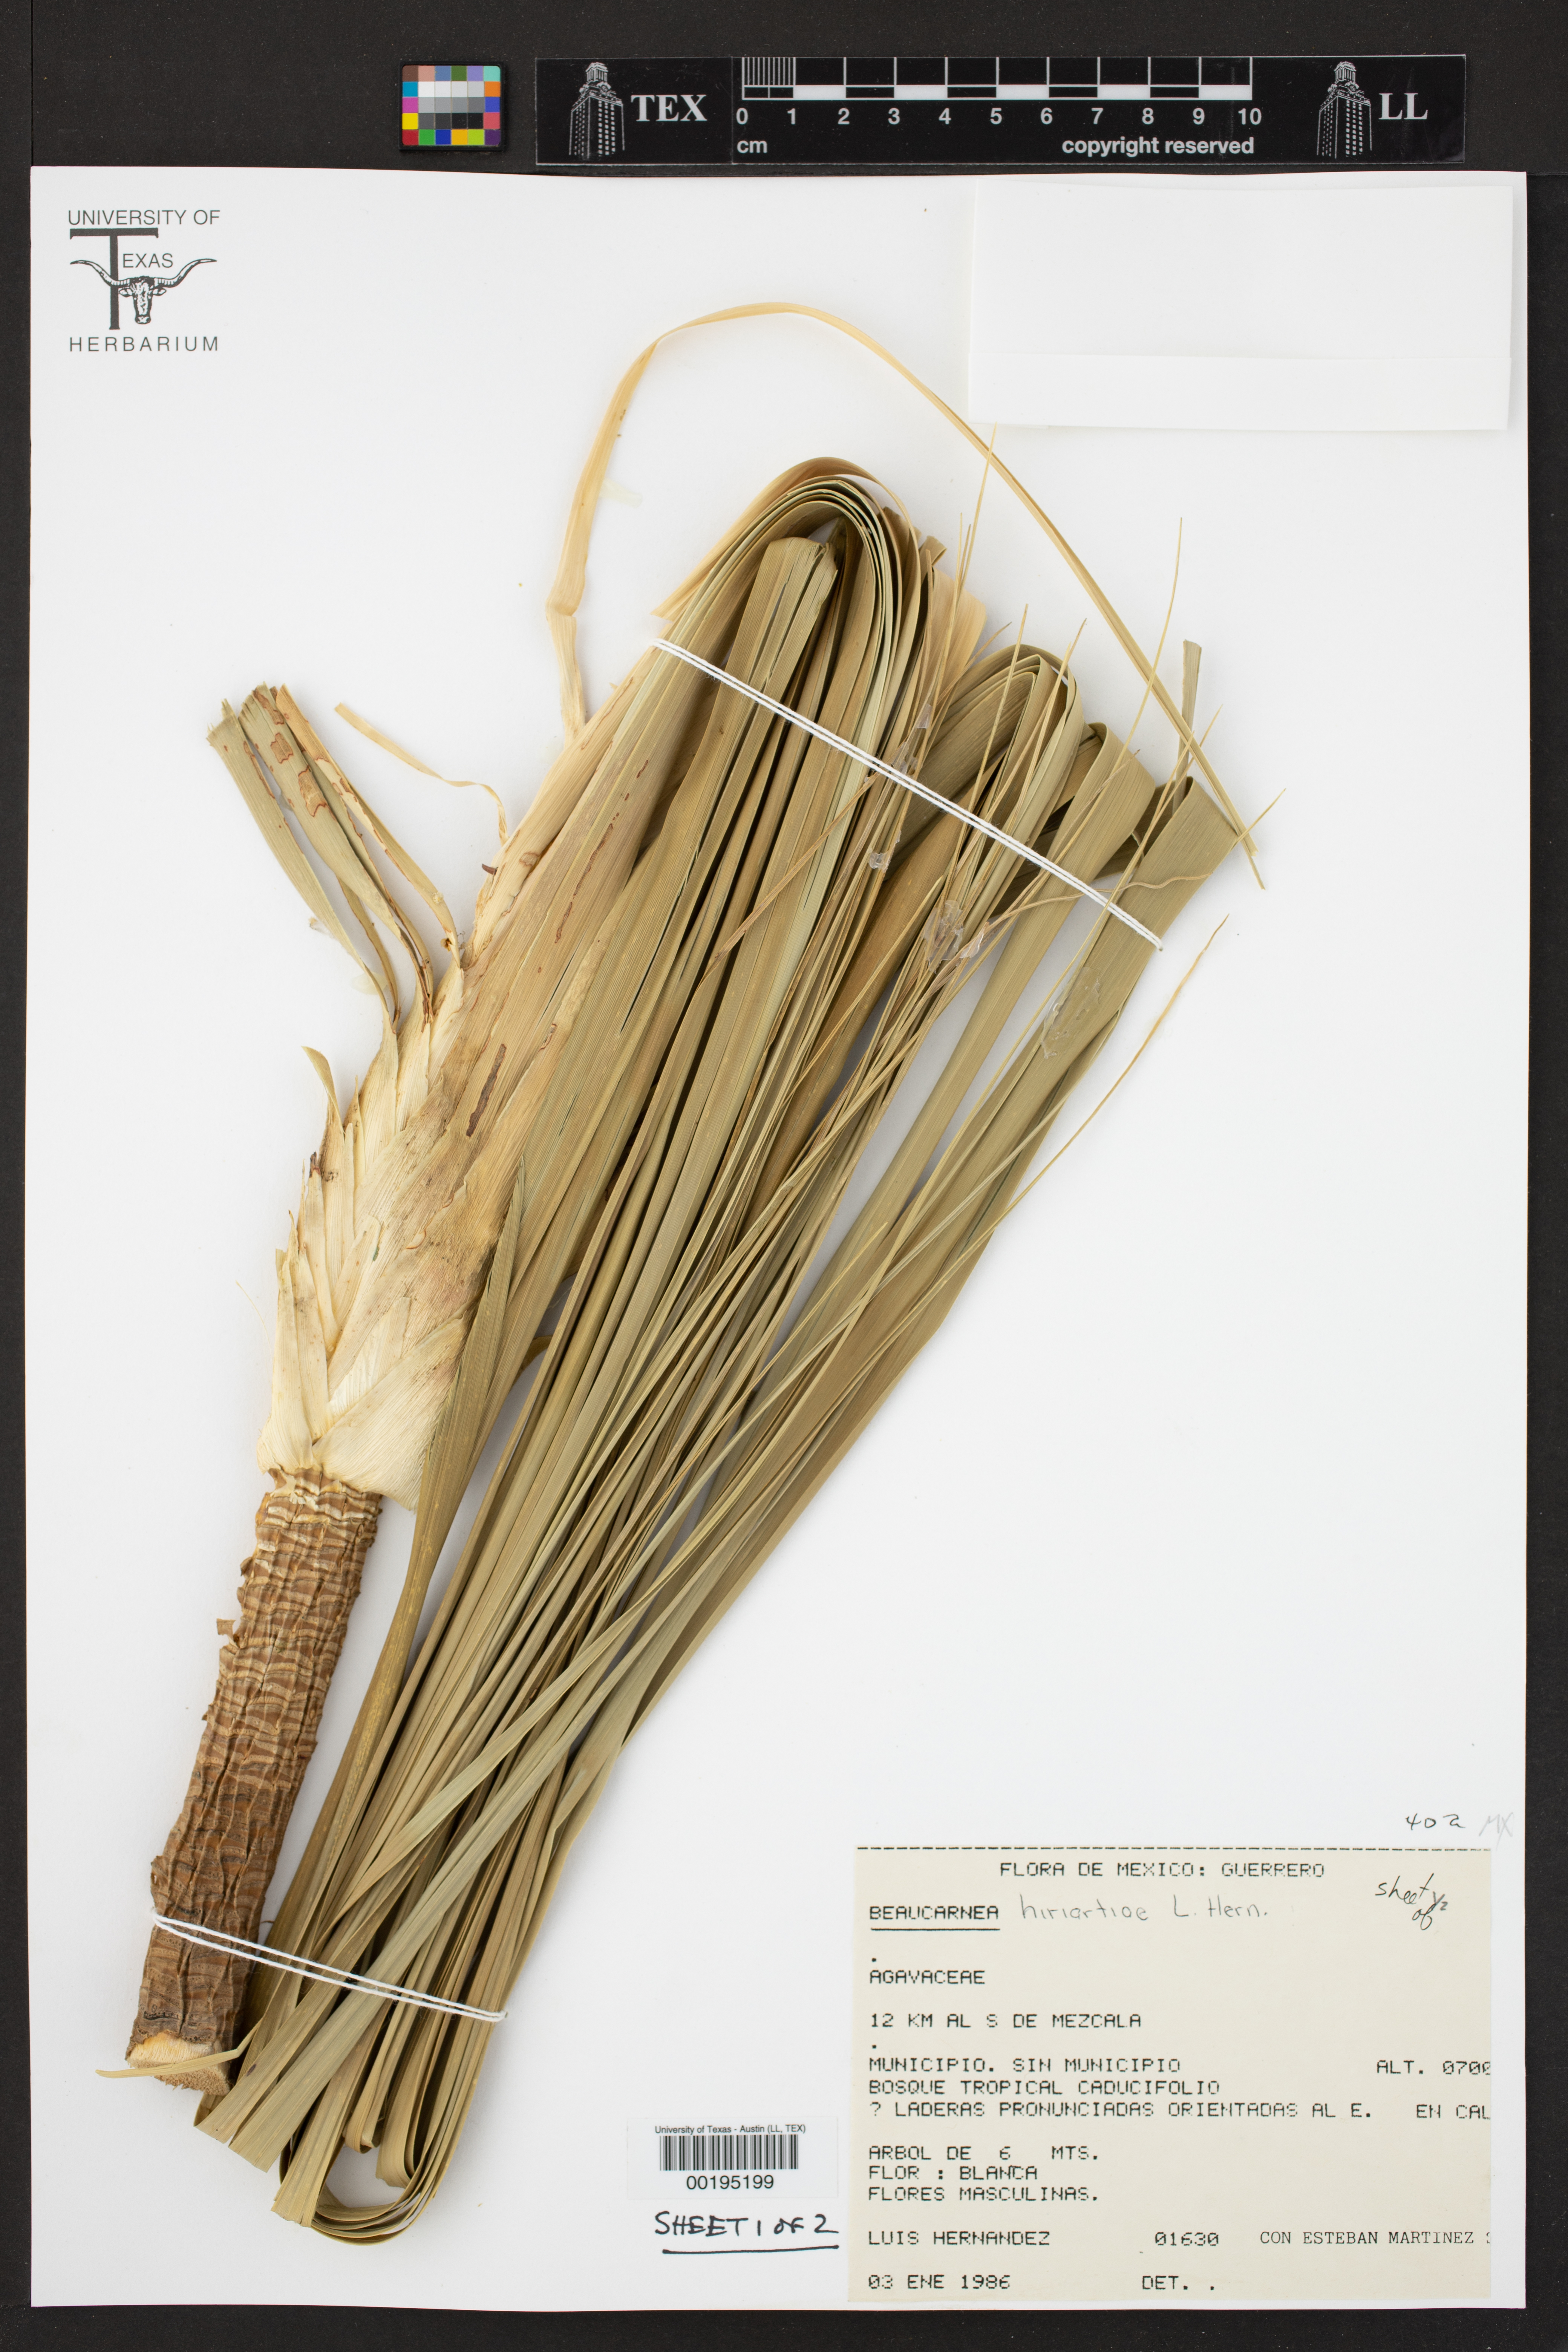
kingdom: Plantae
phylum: Tracheophyta
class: Liliopsida
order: Asparagales
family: Asparagaceae
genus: Beaucarnea
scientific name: Beaucarnea hiriartiae
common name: Ponytail palm
